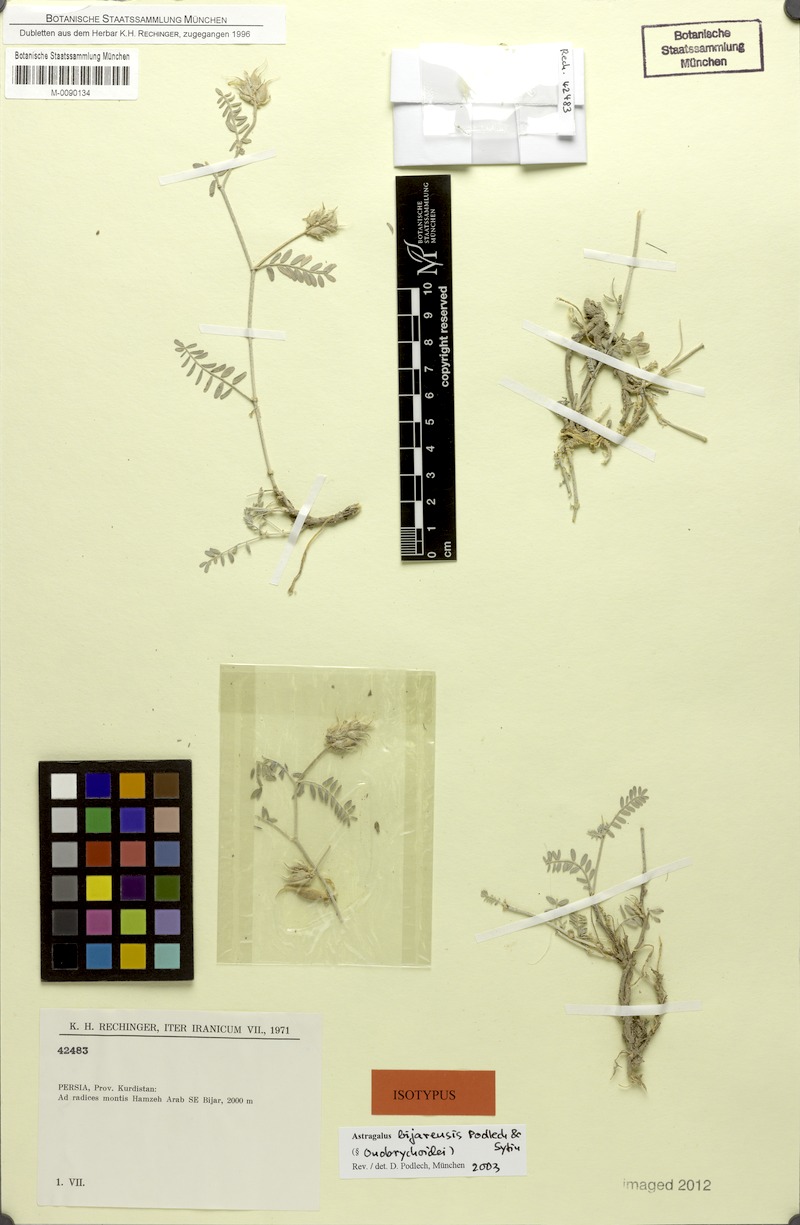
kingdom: Plantae
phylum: Tracheophyta
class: Magnoliopsida
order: Fabales
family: Fabaceae
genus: Astragalus
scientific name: Astragalus bijarensis
